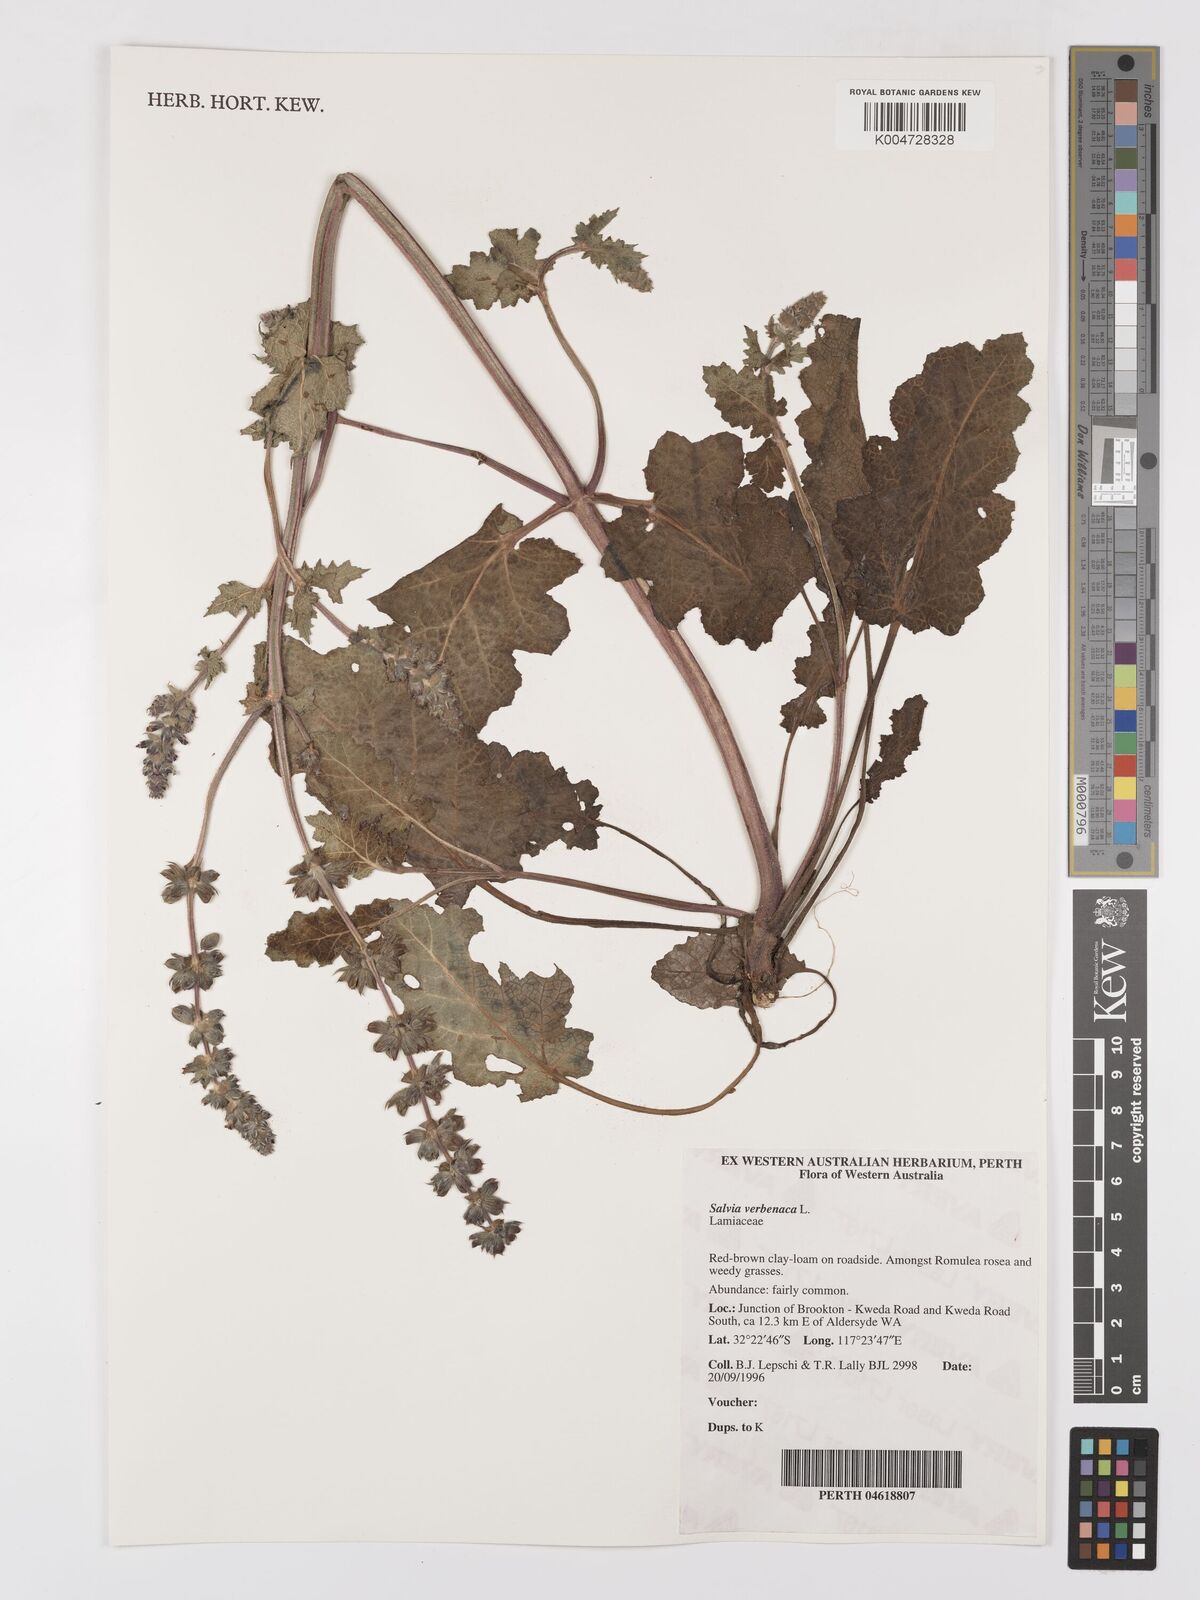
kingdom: Plantae
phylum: Tracheophyta
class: Magnoliopsida
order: Lamiales
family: Lamiaceae
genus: Salvia
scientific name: Salvia verbenaca
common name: Wild clary
